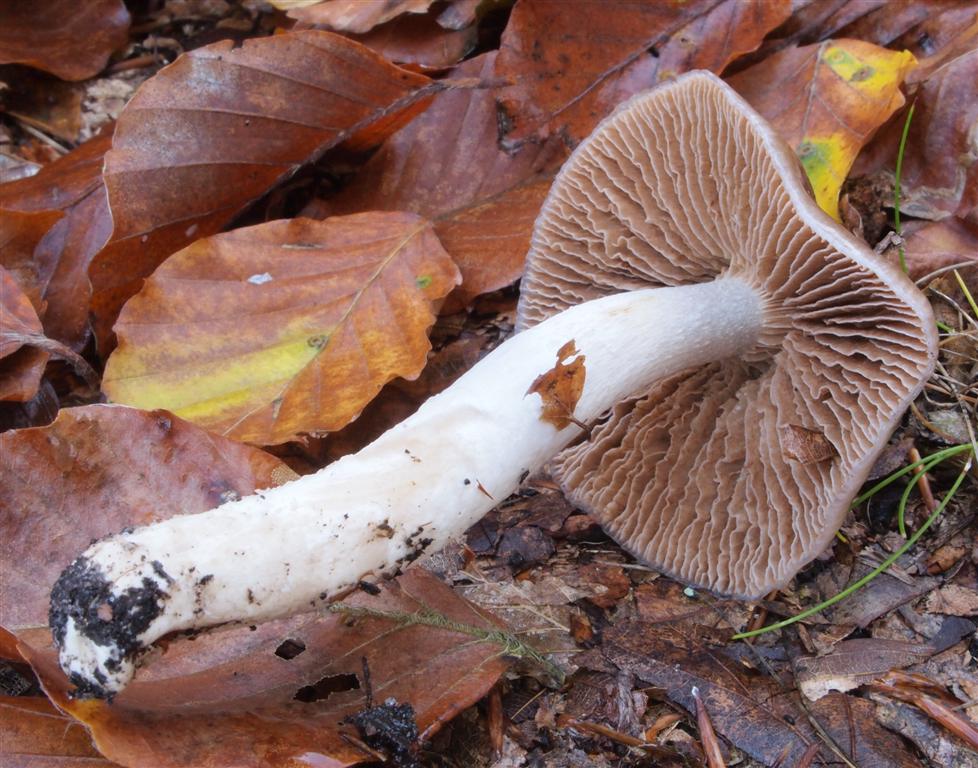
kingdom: Fungi
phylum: Basidiomycota
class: Agaricomycetes
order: Agaricales
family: Cortinariaceae
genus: Cortinarius
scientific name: Cortinarius elatior
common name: høj slørhat
